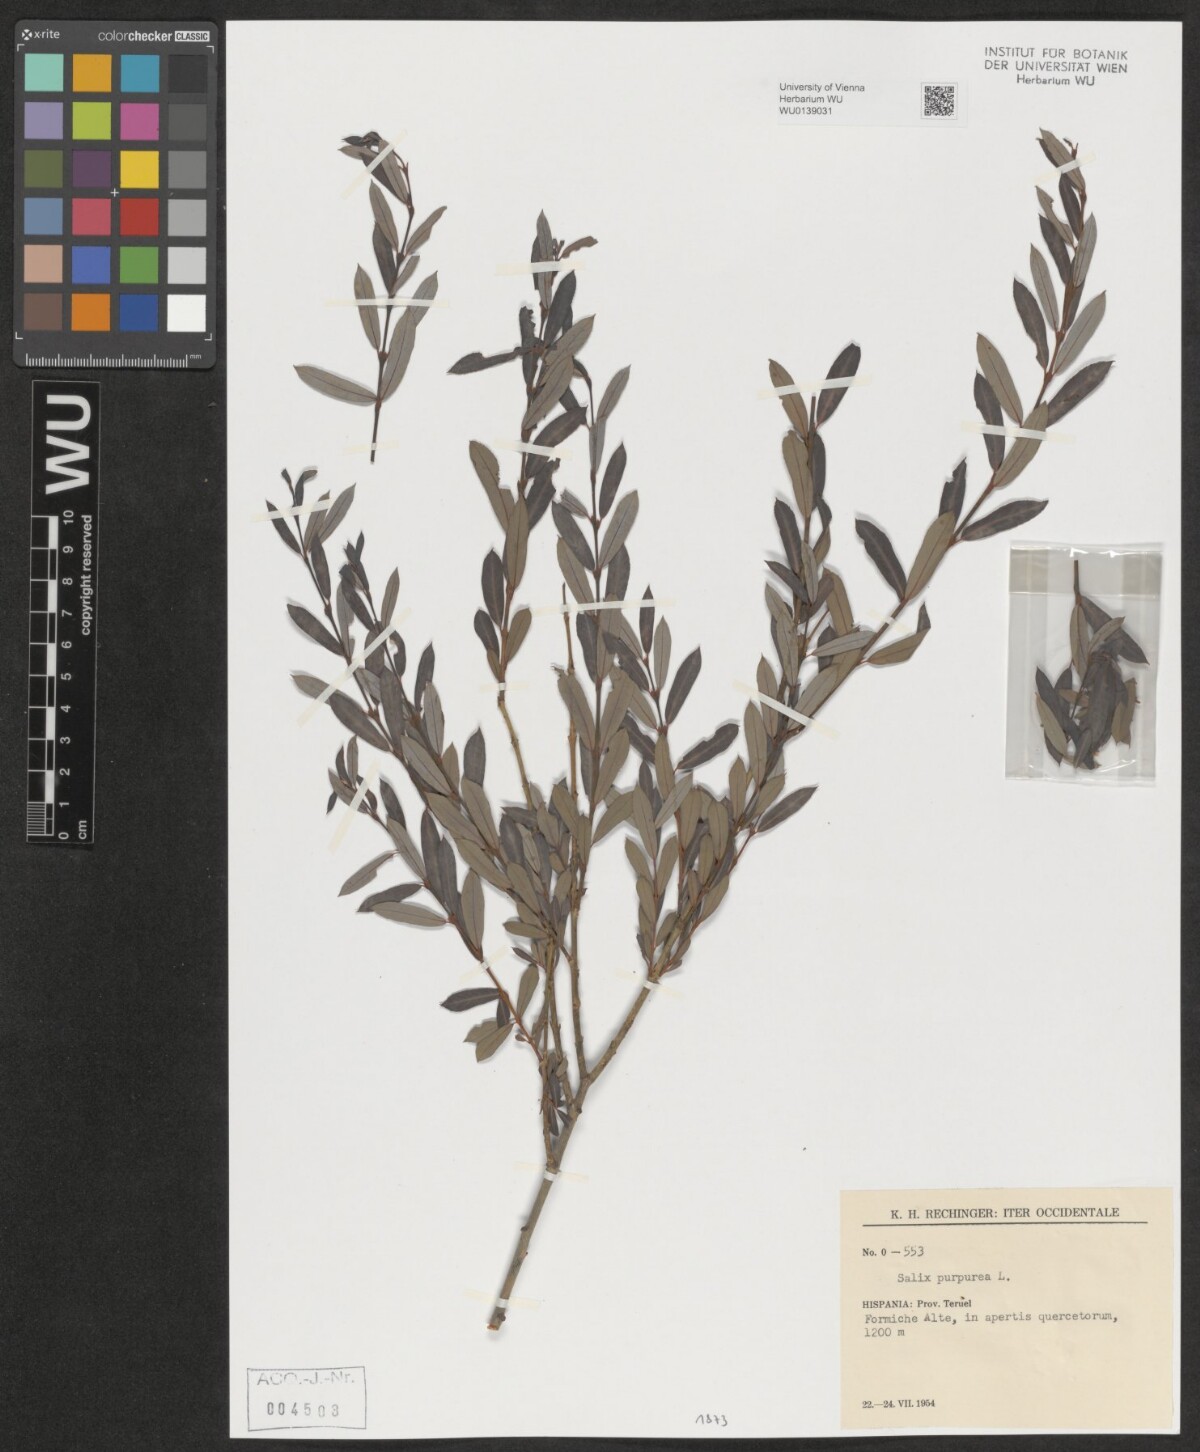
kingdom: Plantae
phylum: Tracheophyta
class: Magnoliopsida
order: Malpighiales
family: Salicaceae
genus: Salix
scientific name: Salix purpurea
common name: Purple willow
